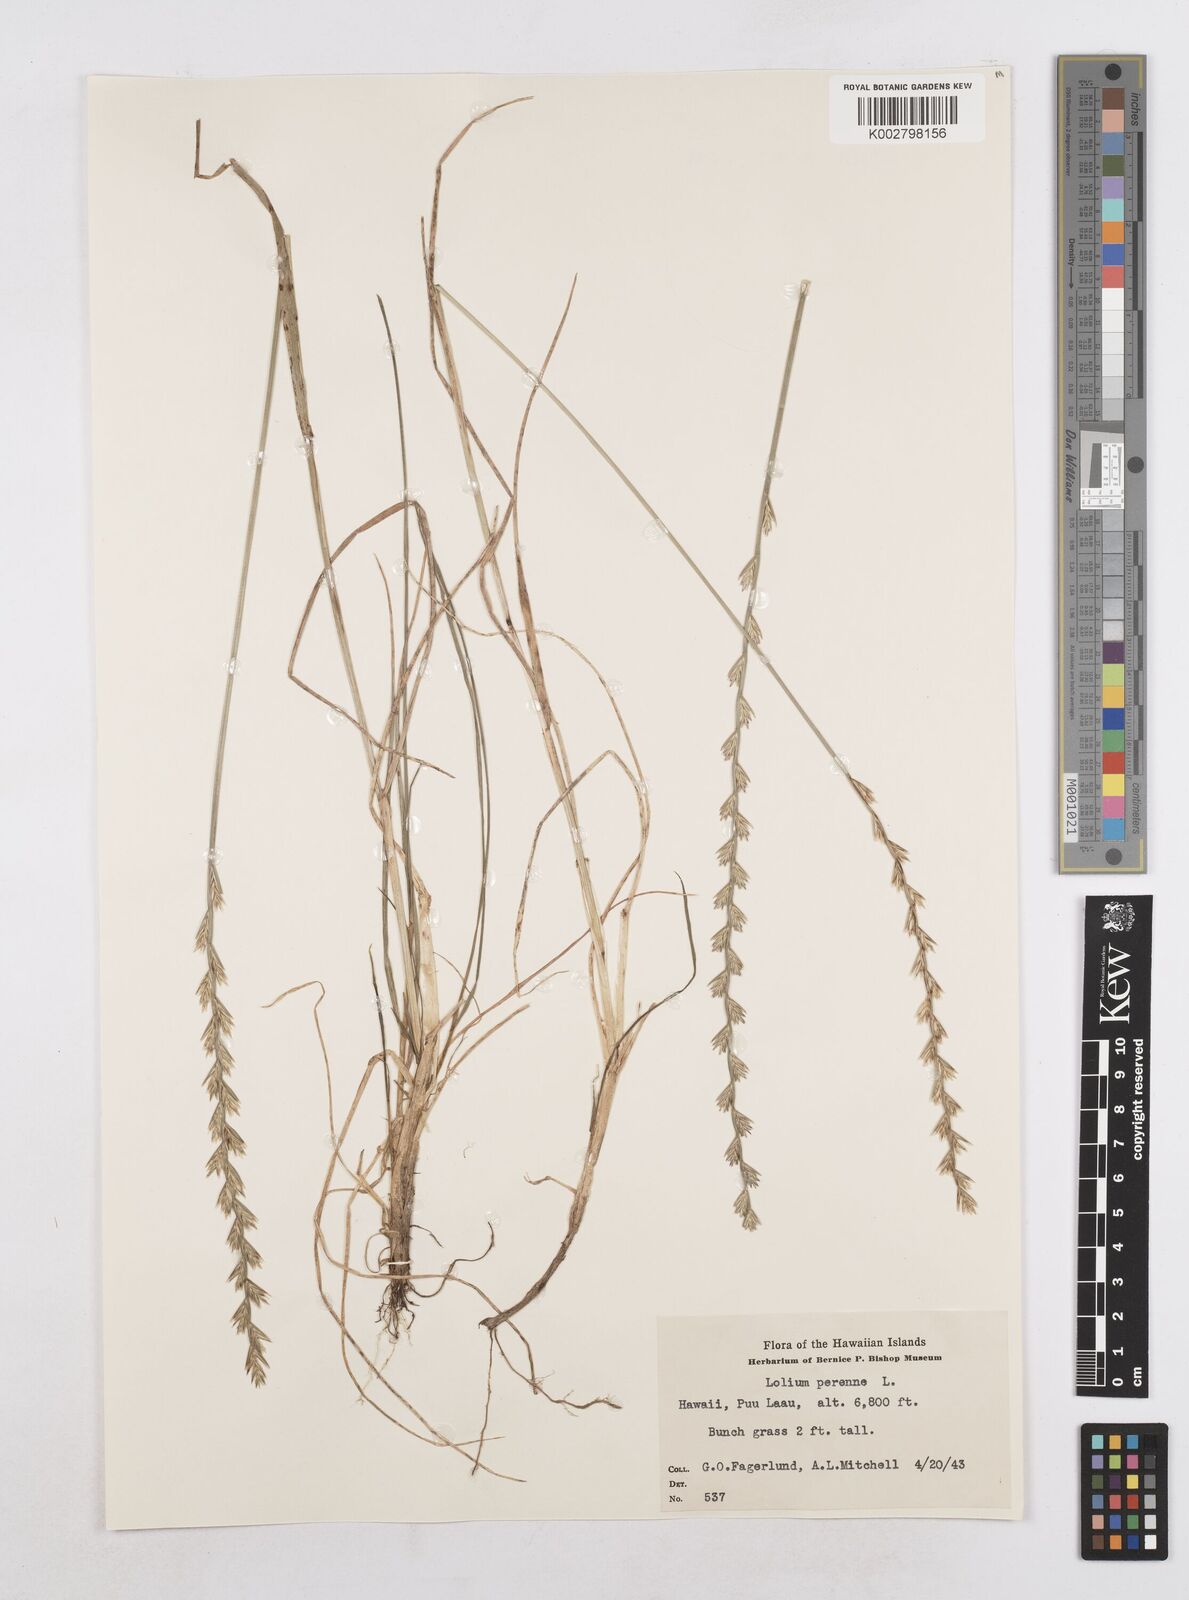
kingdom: Plantae
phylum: Tracheophyta
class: Liliopsida
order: Poales
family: Poaceae
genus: Lolium
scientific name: Lolium perenne
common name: Perennial ryegrass
